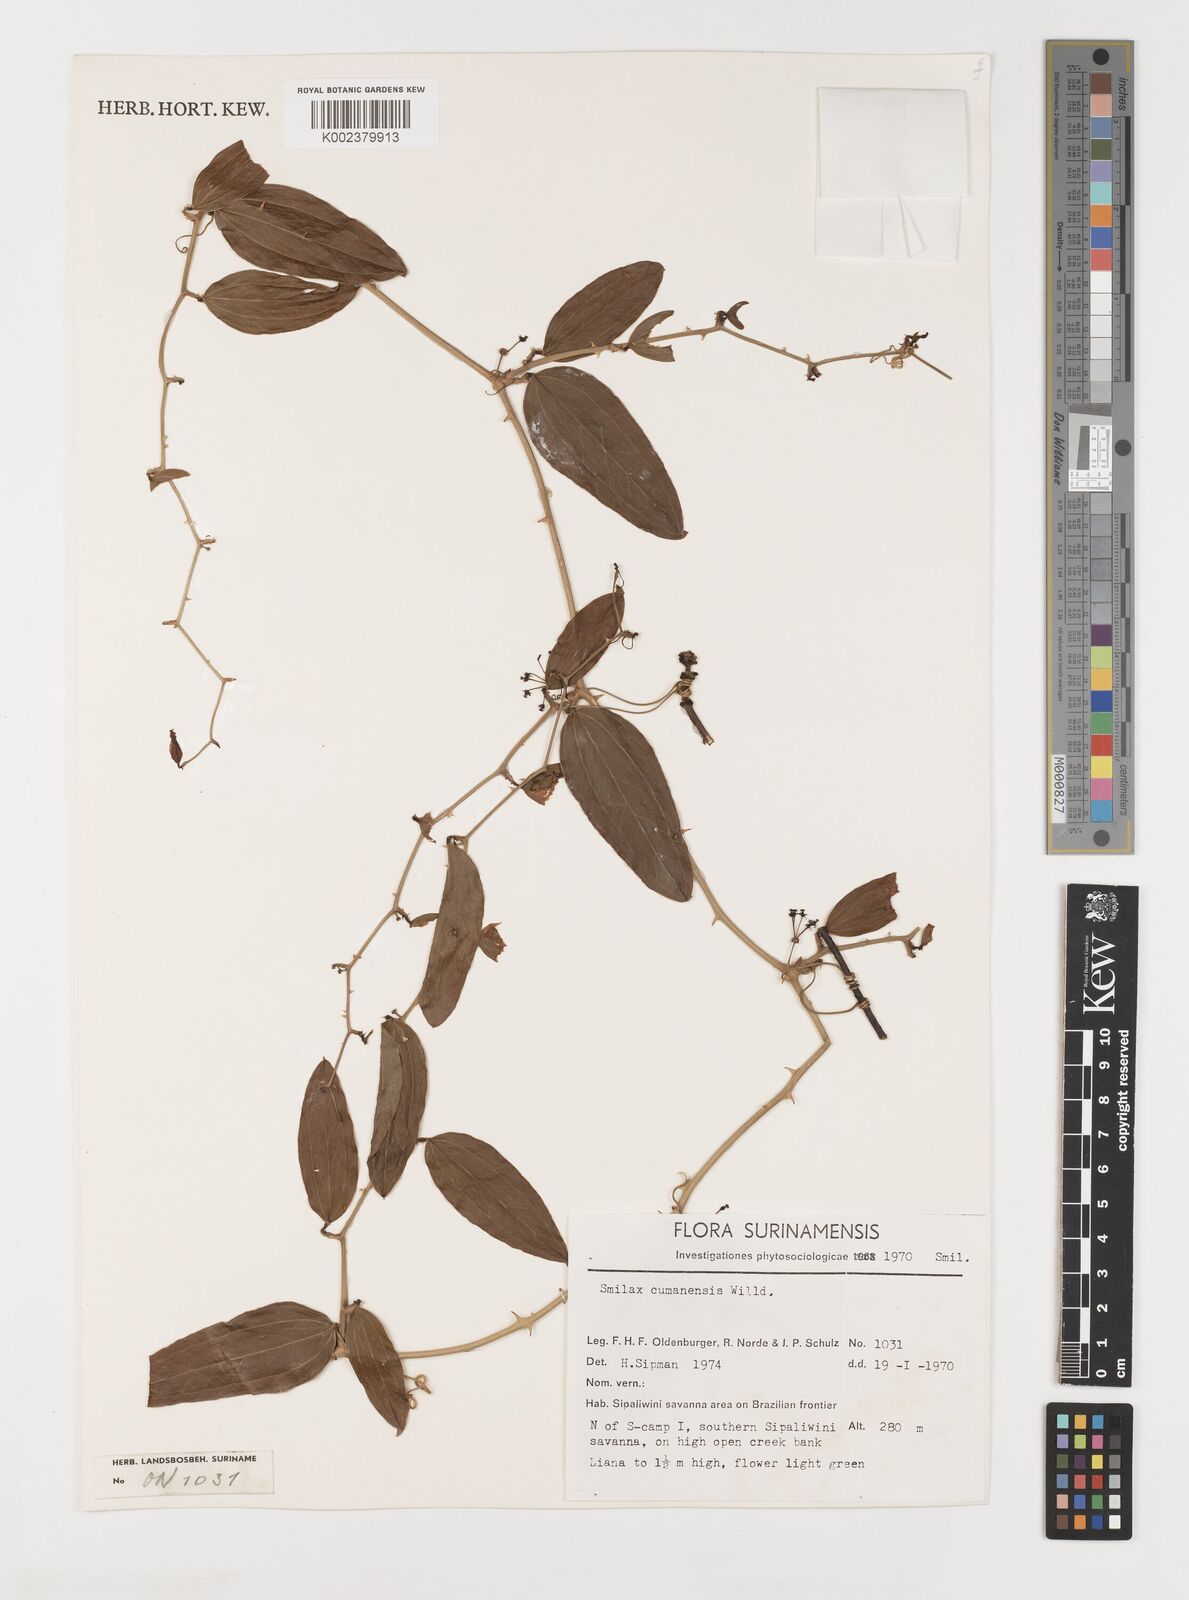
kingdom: Plantae
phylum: Tracheophyta
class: Liliopsida
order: Liliales
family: Smilacaceae
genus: Smilax
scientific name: Smilax oblongata
